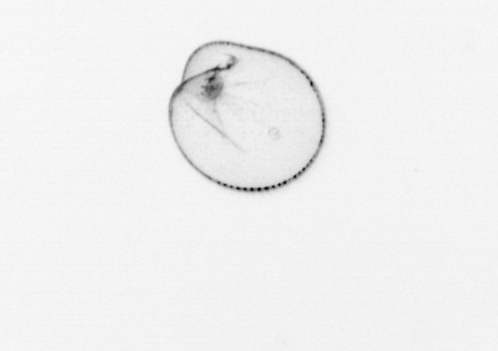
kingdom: Chromista
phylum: Myzozoa
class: Dinophyceae
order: Noctilucales
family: Noctilucaceae
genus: Noctiluca
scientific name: Noctiluca scintillans
